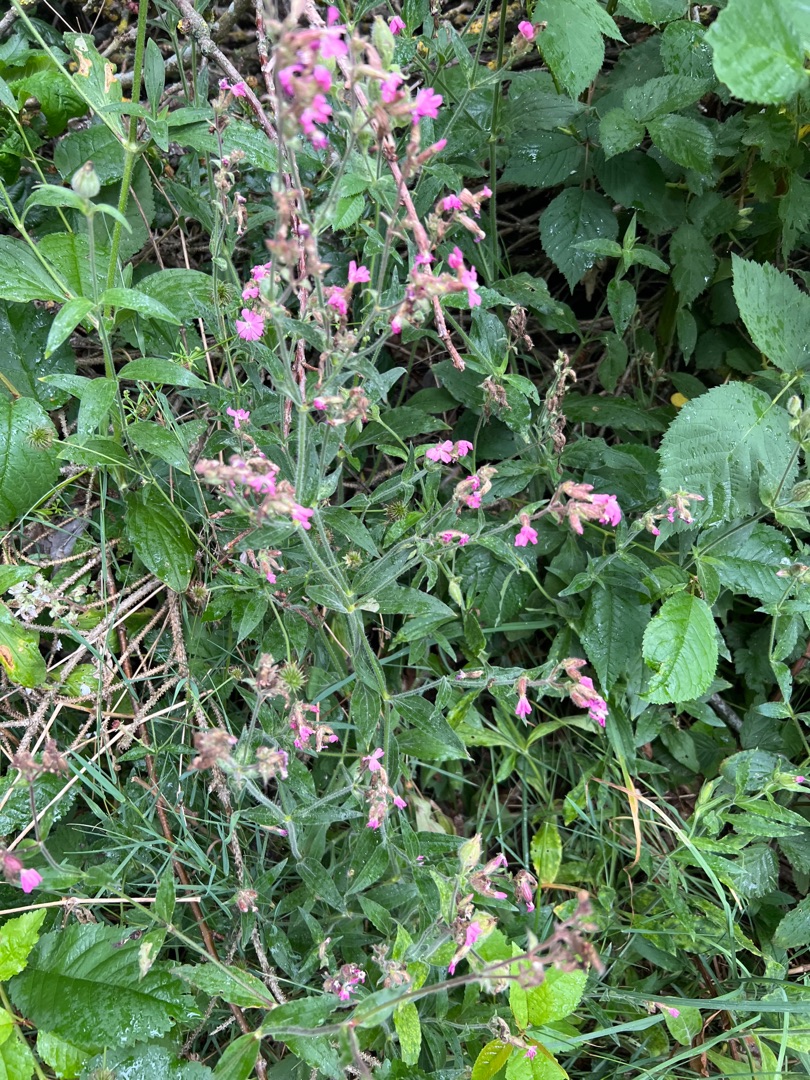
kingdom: Plantae
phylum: Tracheophyta
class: Magnoliopsida
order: Caryophyllales
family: Caryophyllaceae
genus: Silene
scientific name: Silene dioica
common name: Dagpragtstjerne
